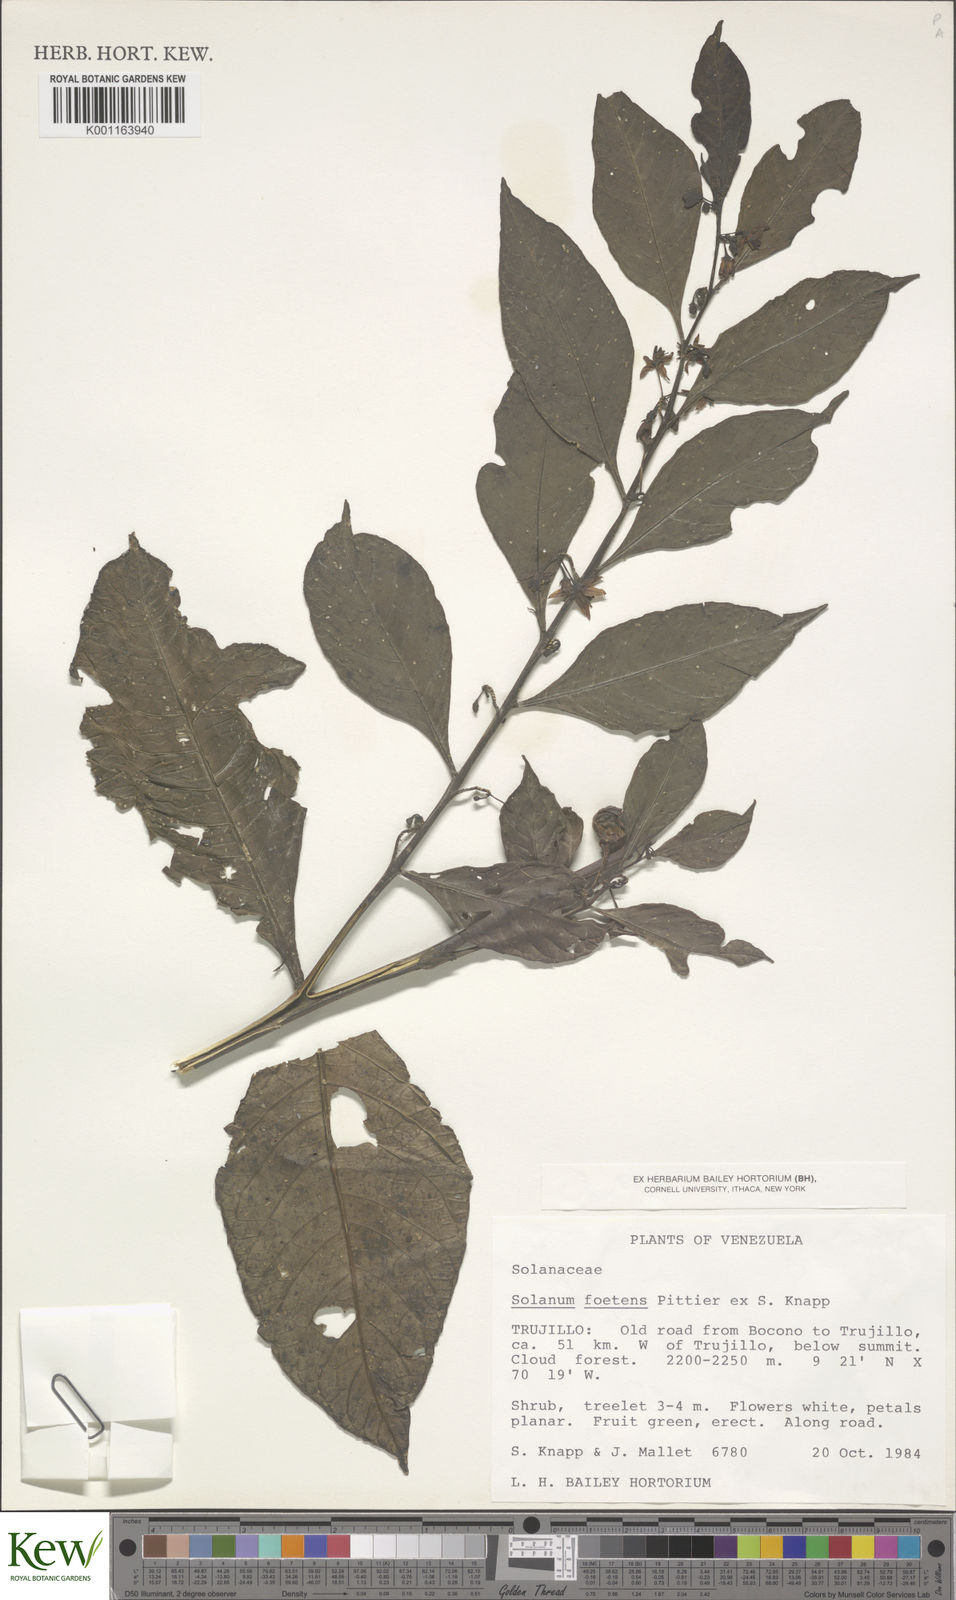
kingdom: Plantae
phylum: Tracheophyta
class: Magnoliopsida
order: Solanales
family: Solanaceae
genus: Solanum
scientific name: Solanum foetens
